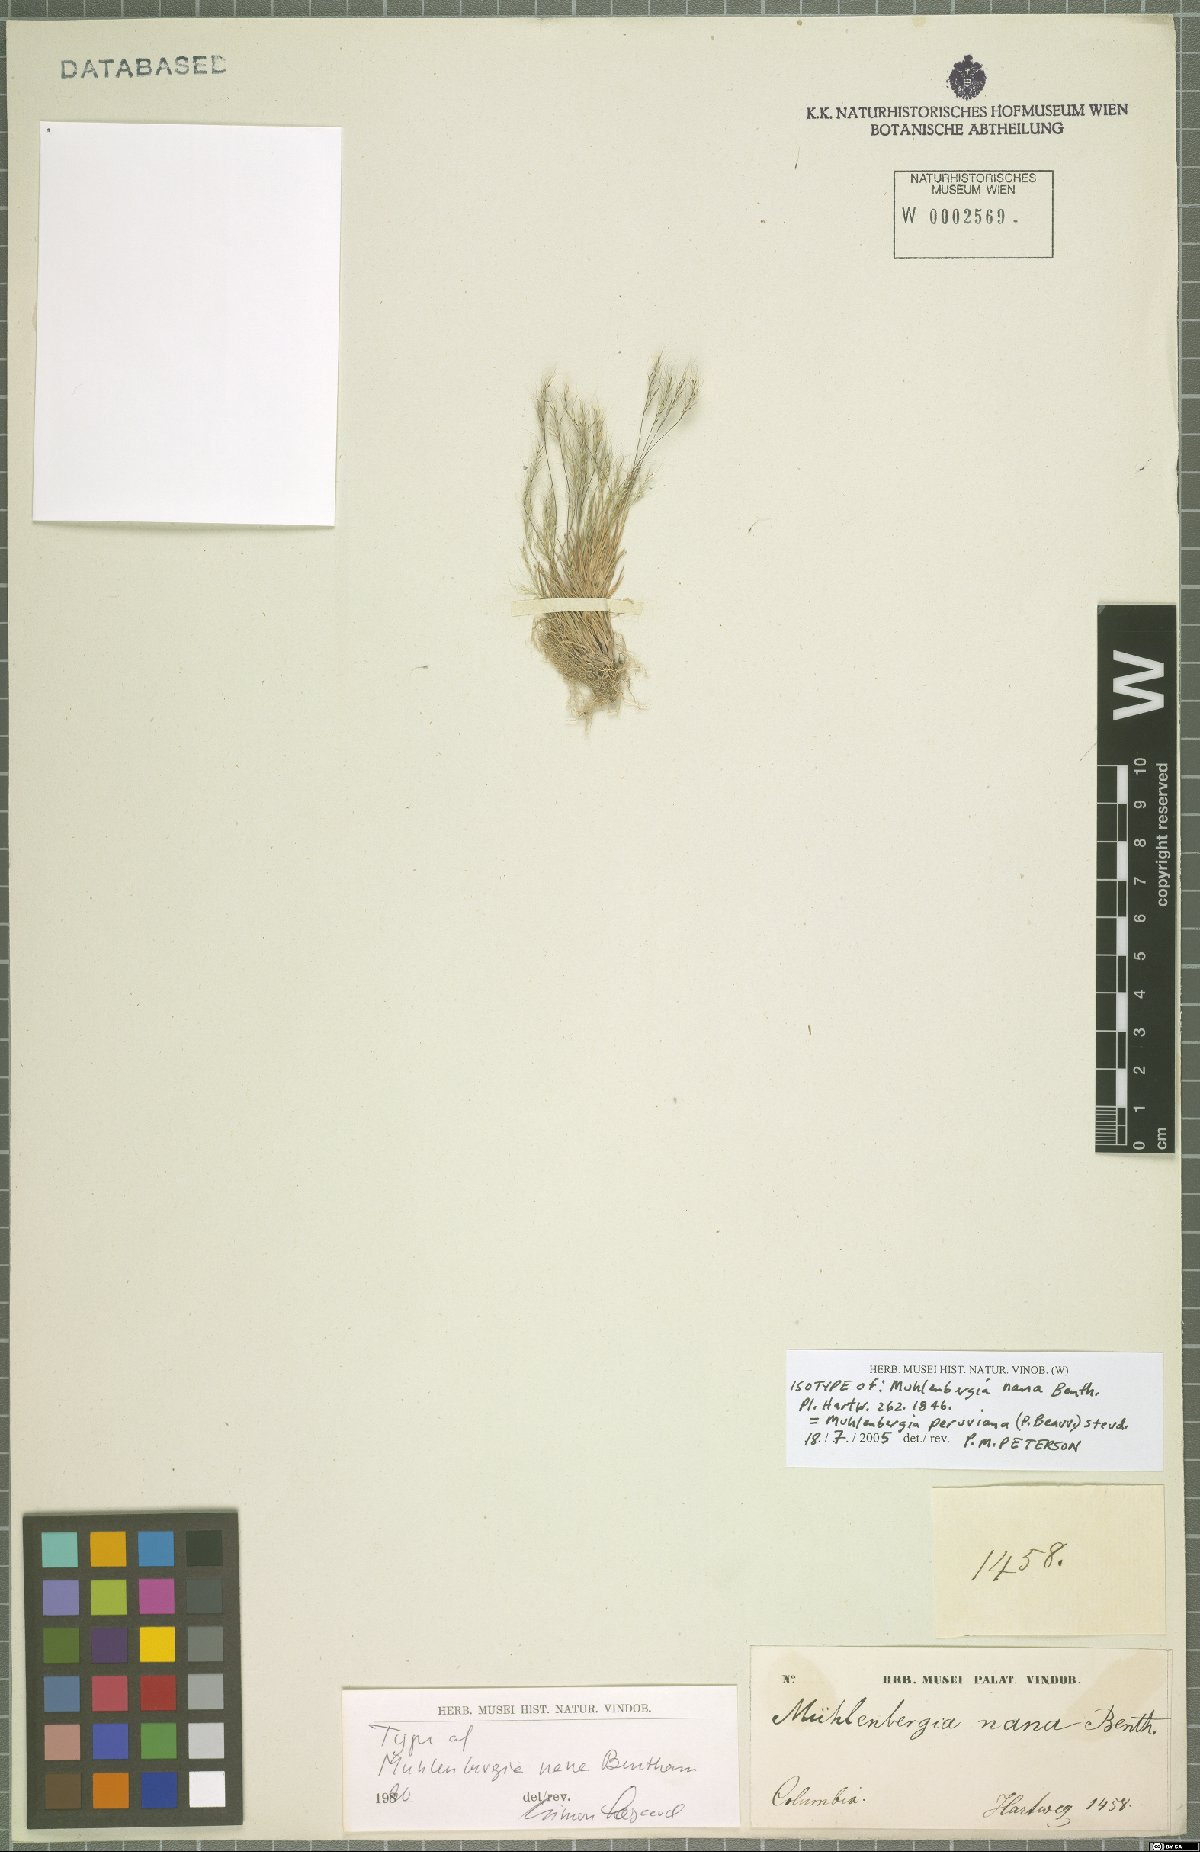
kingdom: Plantae
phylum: Tracheophyta
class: Liliopsida
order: Poales
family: Poaceae
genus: Muhlenbergia
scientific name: Muhlenbergia peruviana
